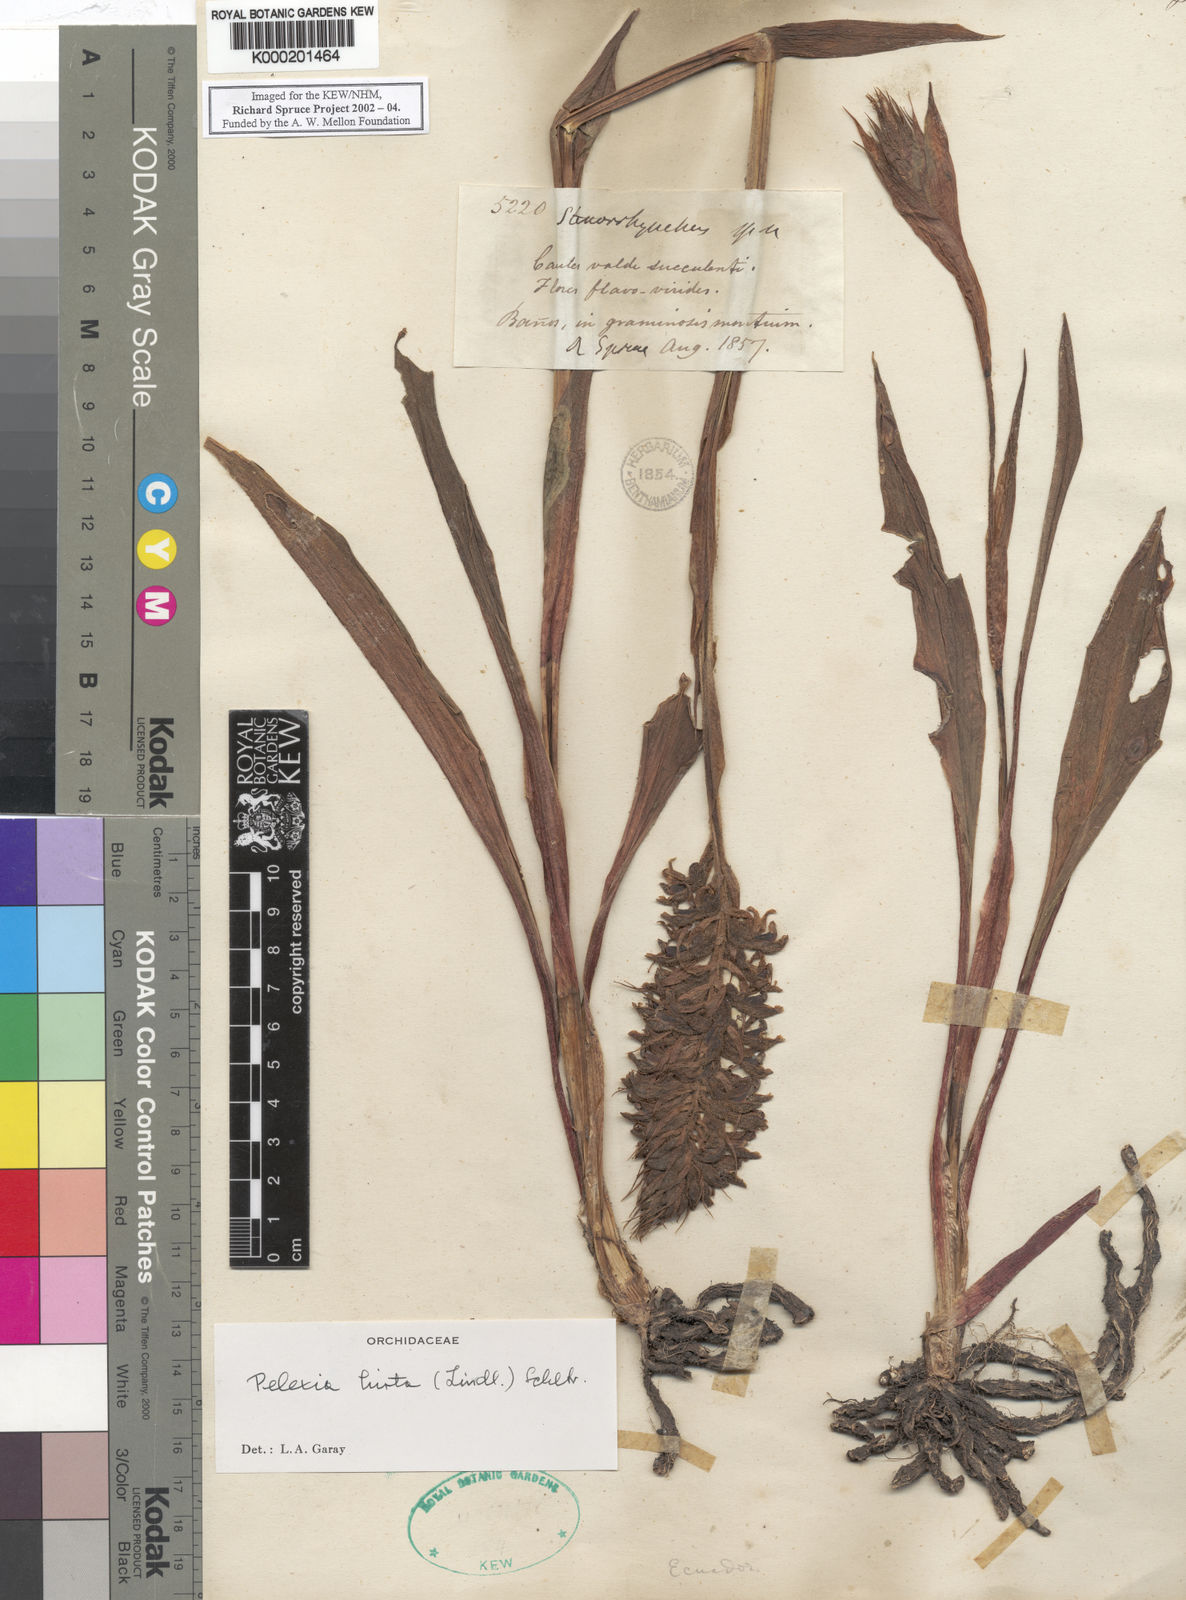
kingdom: Plantae
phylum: Tracheophyta
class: Liliopsida
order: Asparagales
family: Orchidaceae
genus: Pelexia
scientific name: Pelexia hirta
